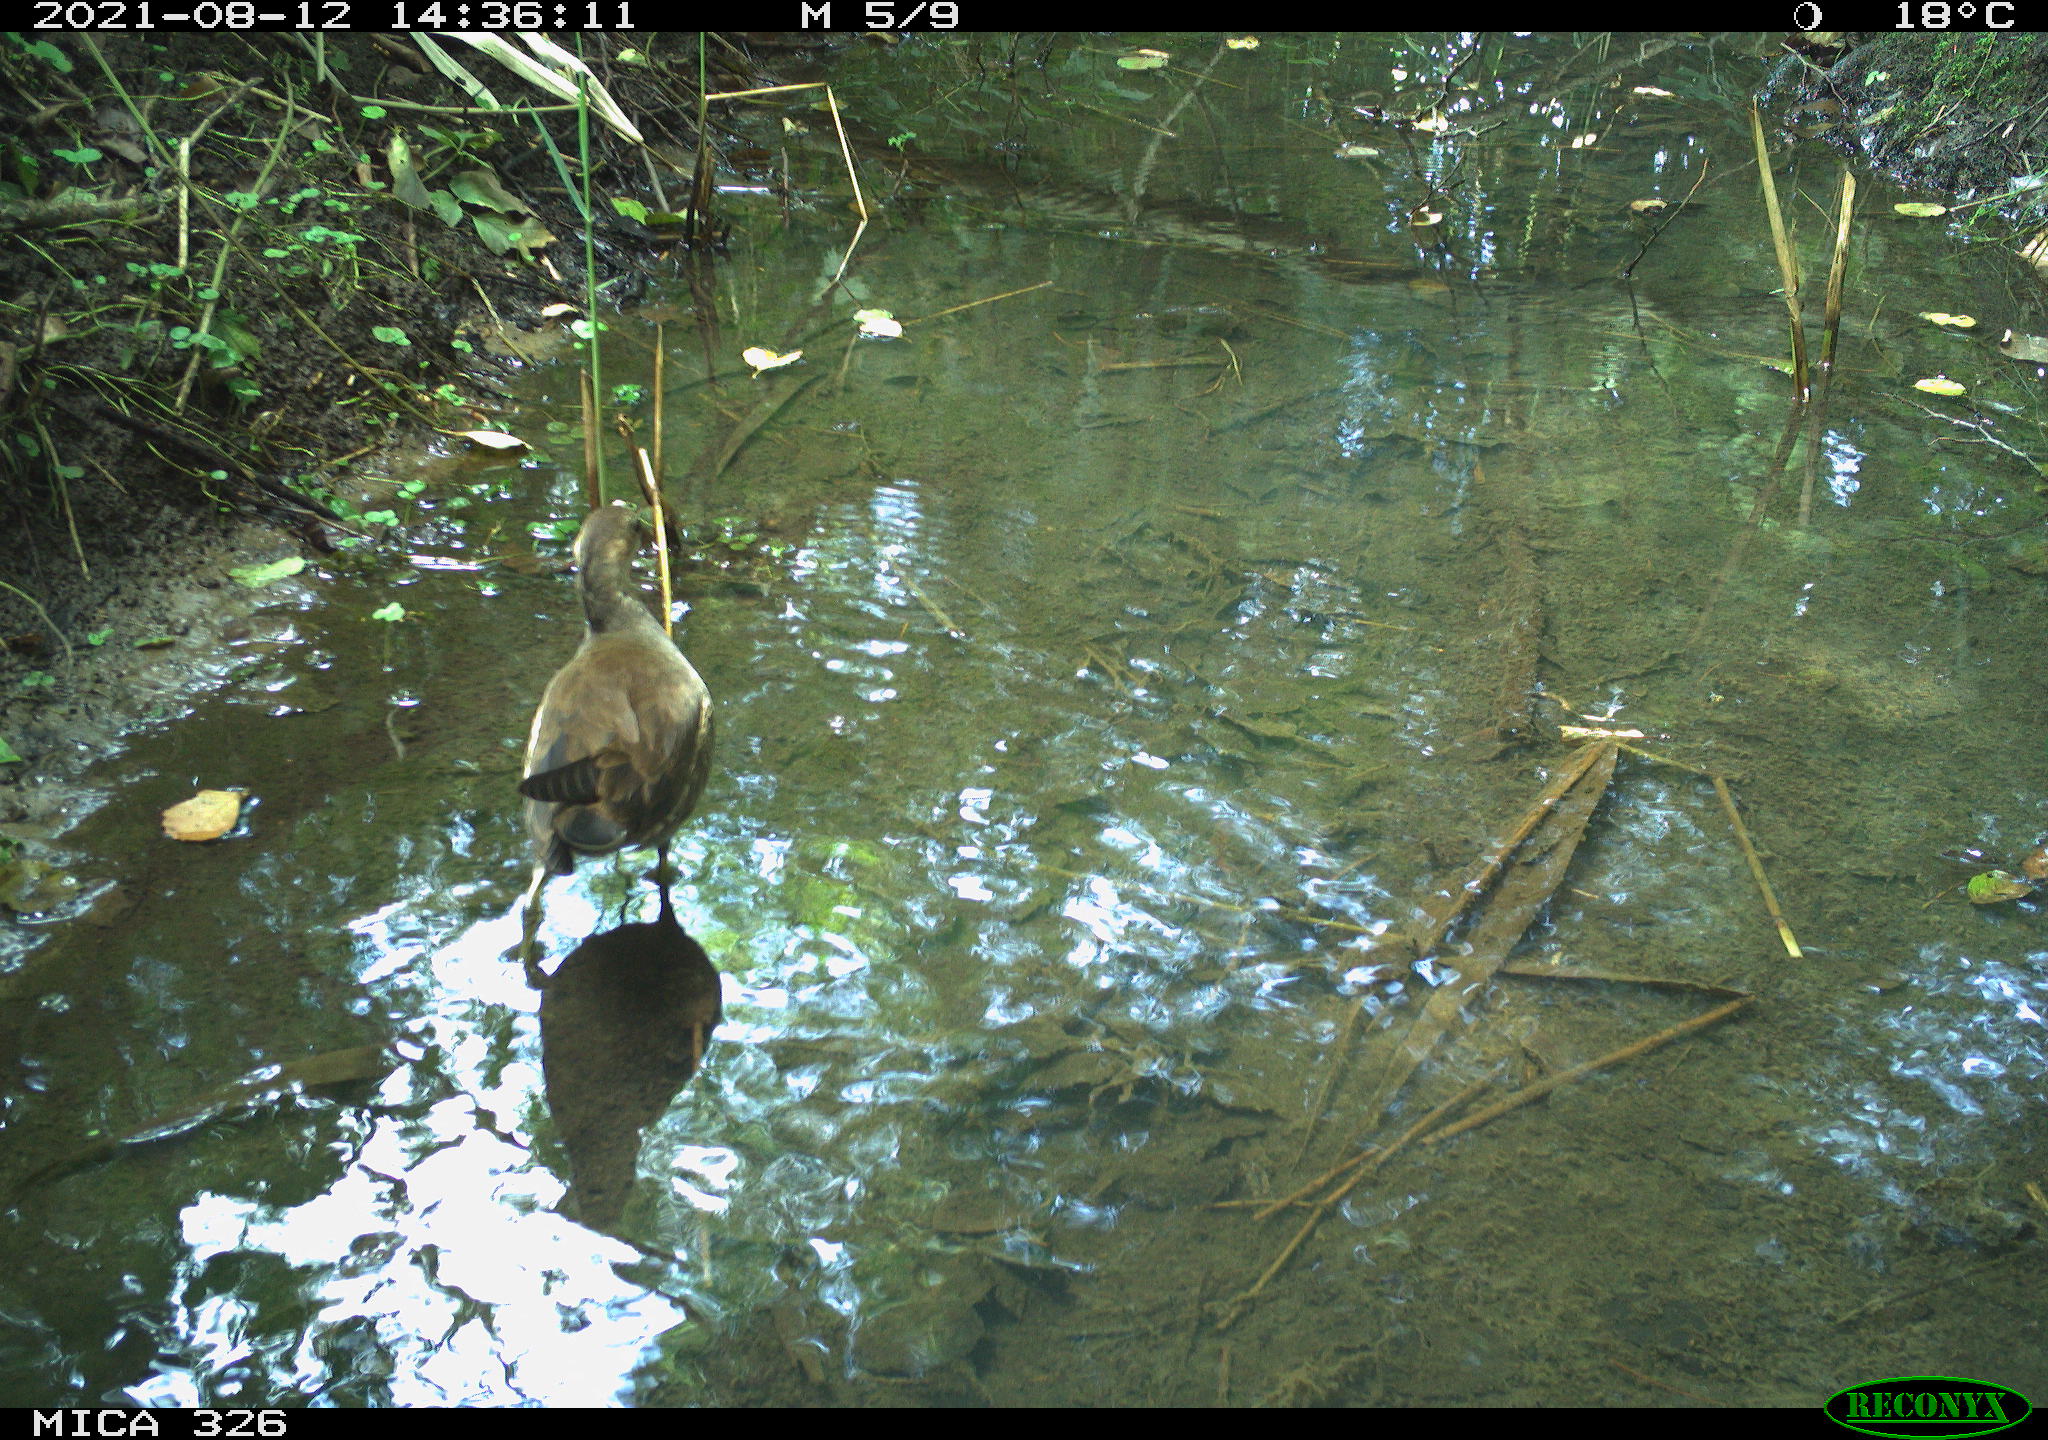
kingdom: Animalia
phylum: Chordata
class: Aves
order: Gruiformes
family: Rallidae
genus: Gallinula
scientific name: Gallinula chloropus
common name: Common moorhen
